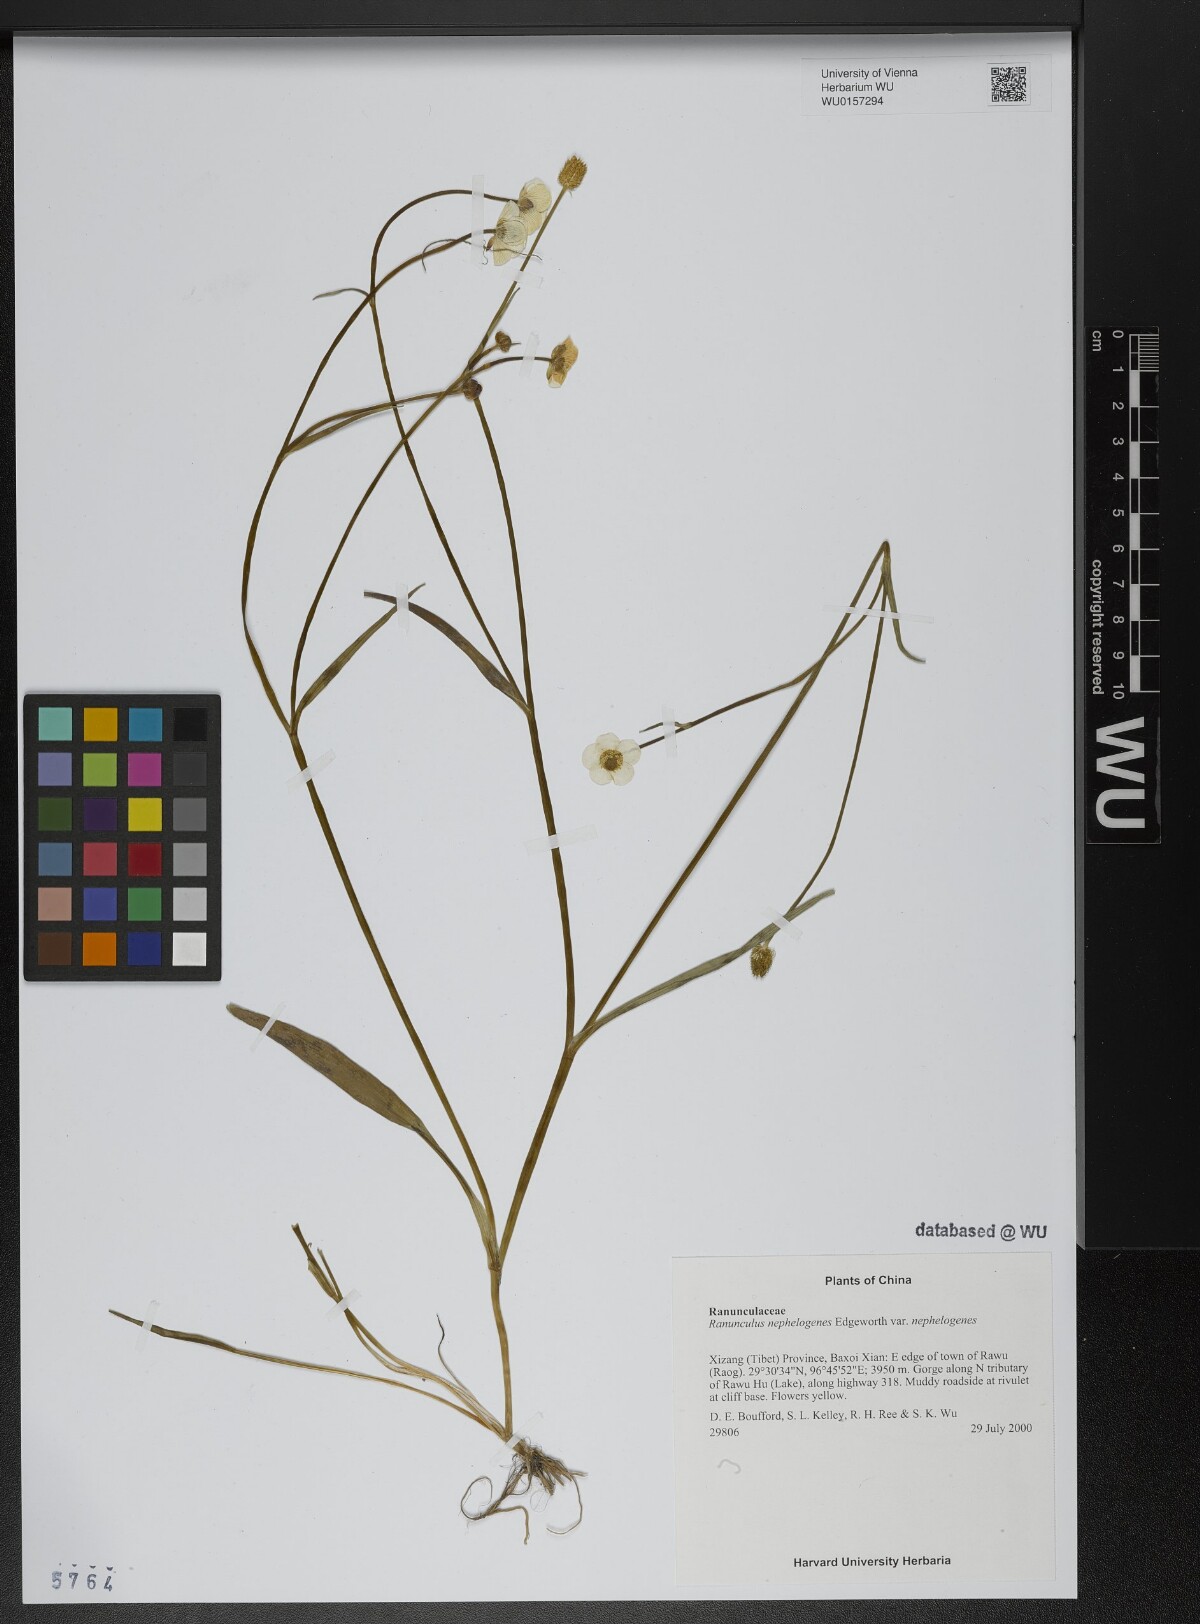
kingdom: Plantae
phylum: Tracheophyta
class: Magnoliopsida
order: Ranunculales
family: Ranunculaceae
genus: Ranunculus
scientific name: Ranunculus nephelogenes
